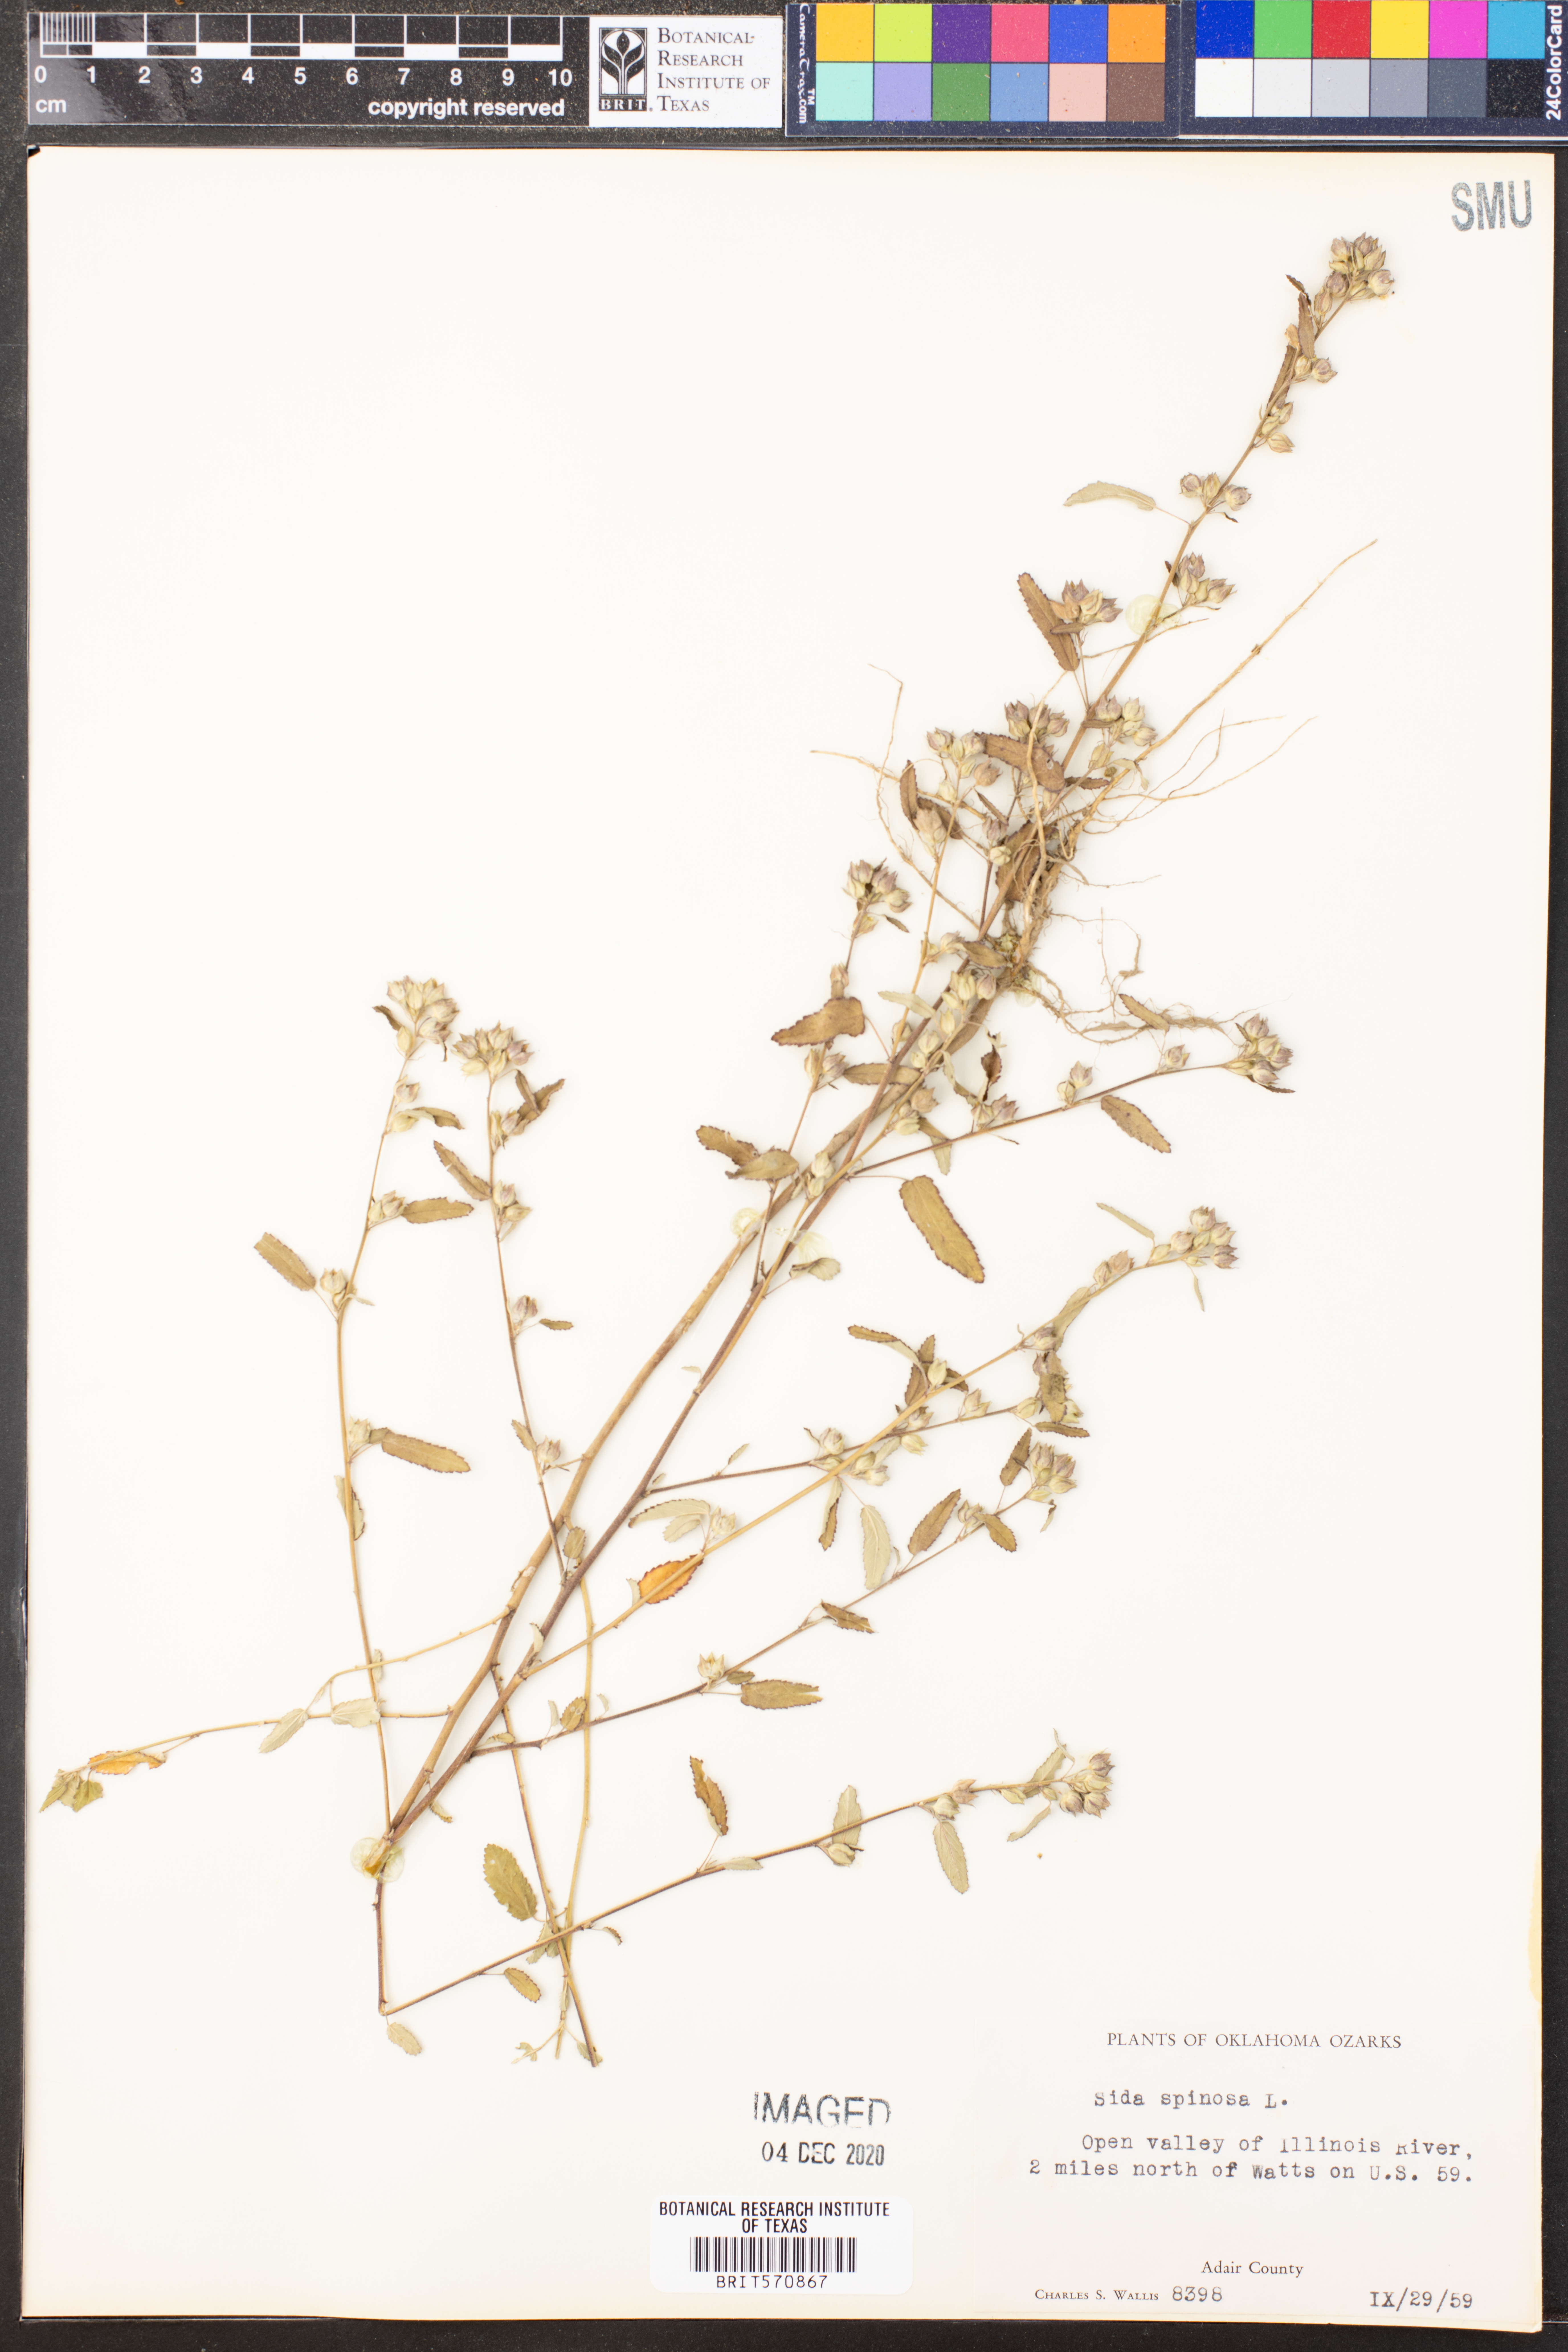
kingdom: Plantae
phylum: Tracheophyta
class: Magnoliopsida
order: Malvales
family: Malvaceae
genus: Sida
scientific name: Sida spinosa
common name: Prickly fanpetals
